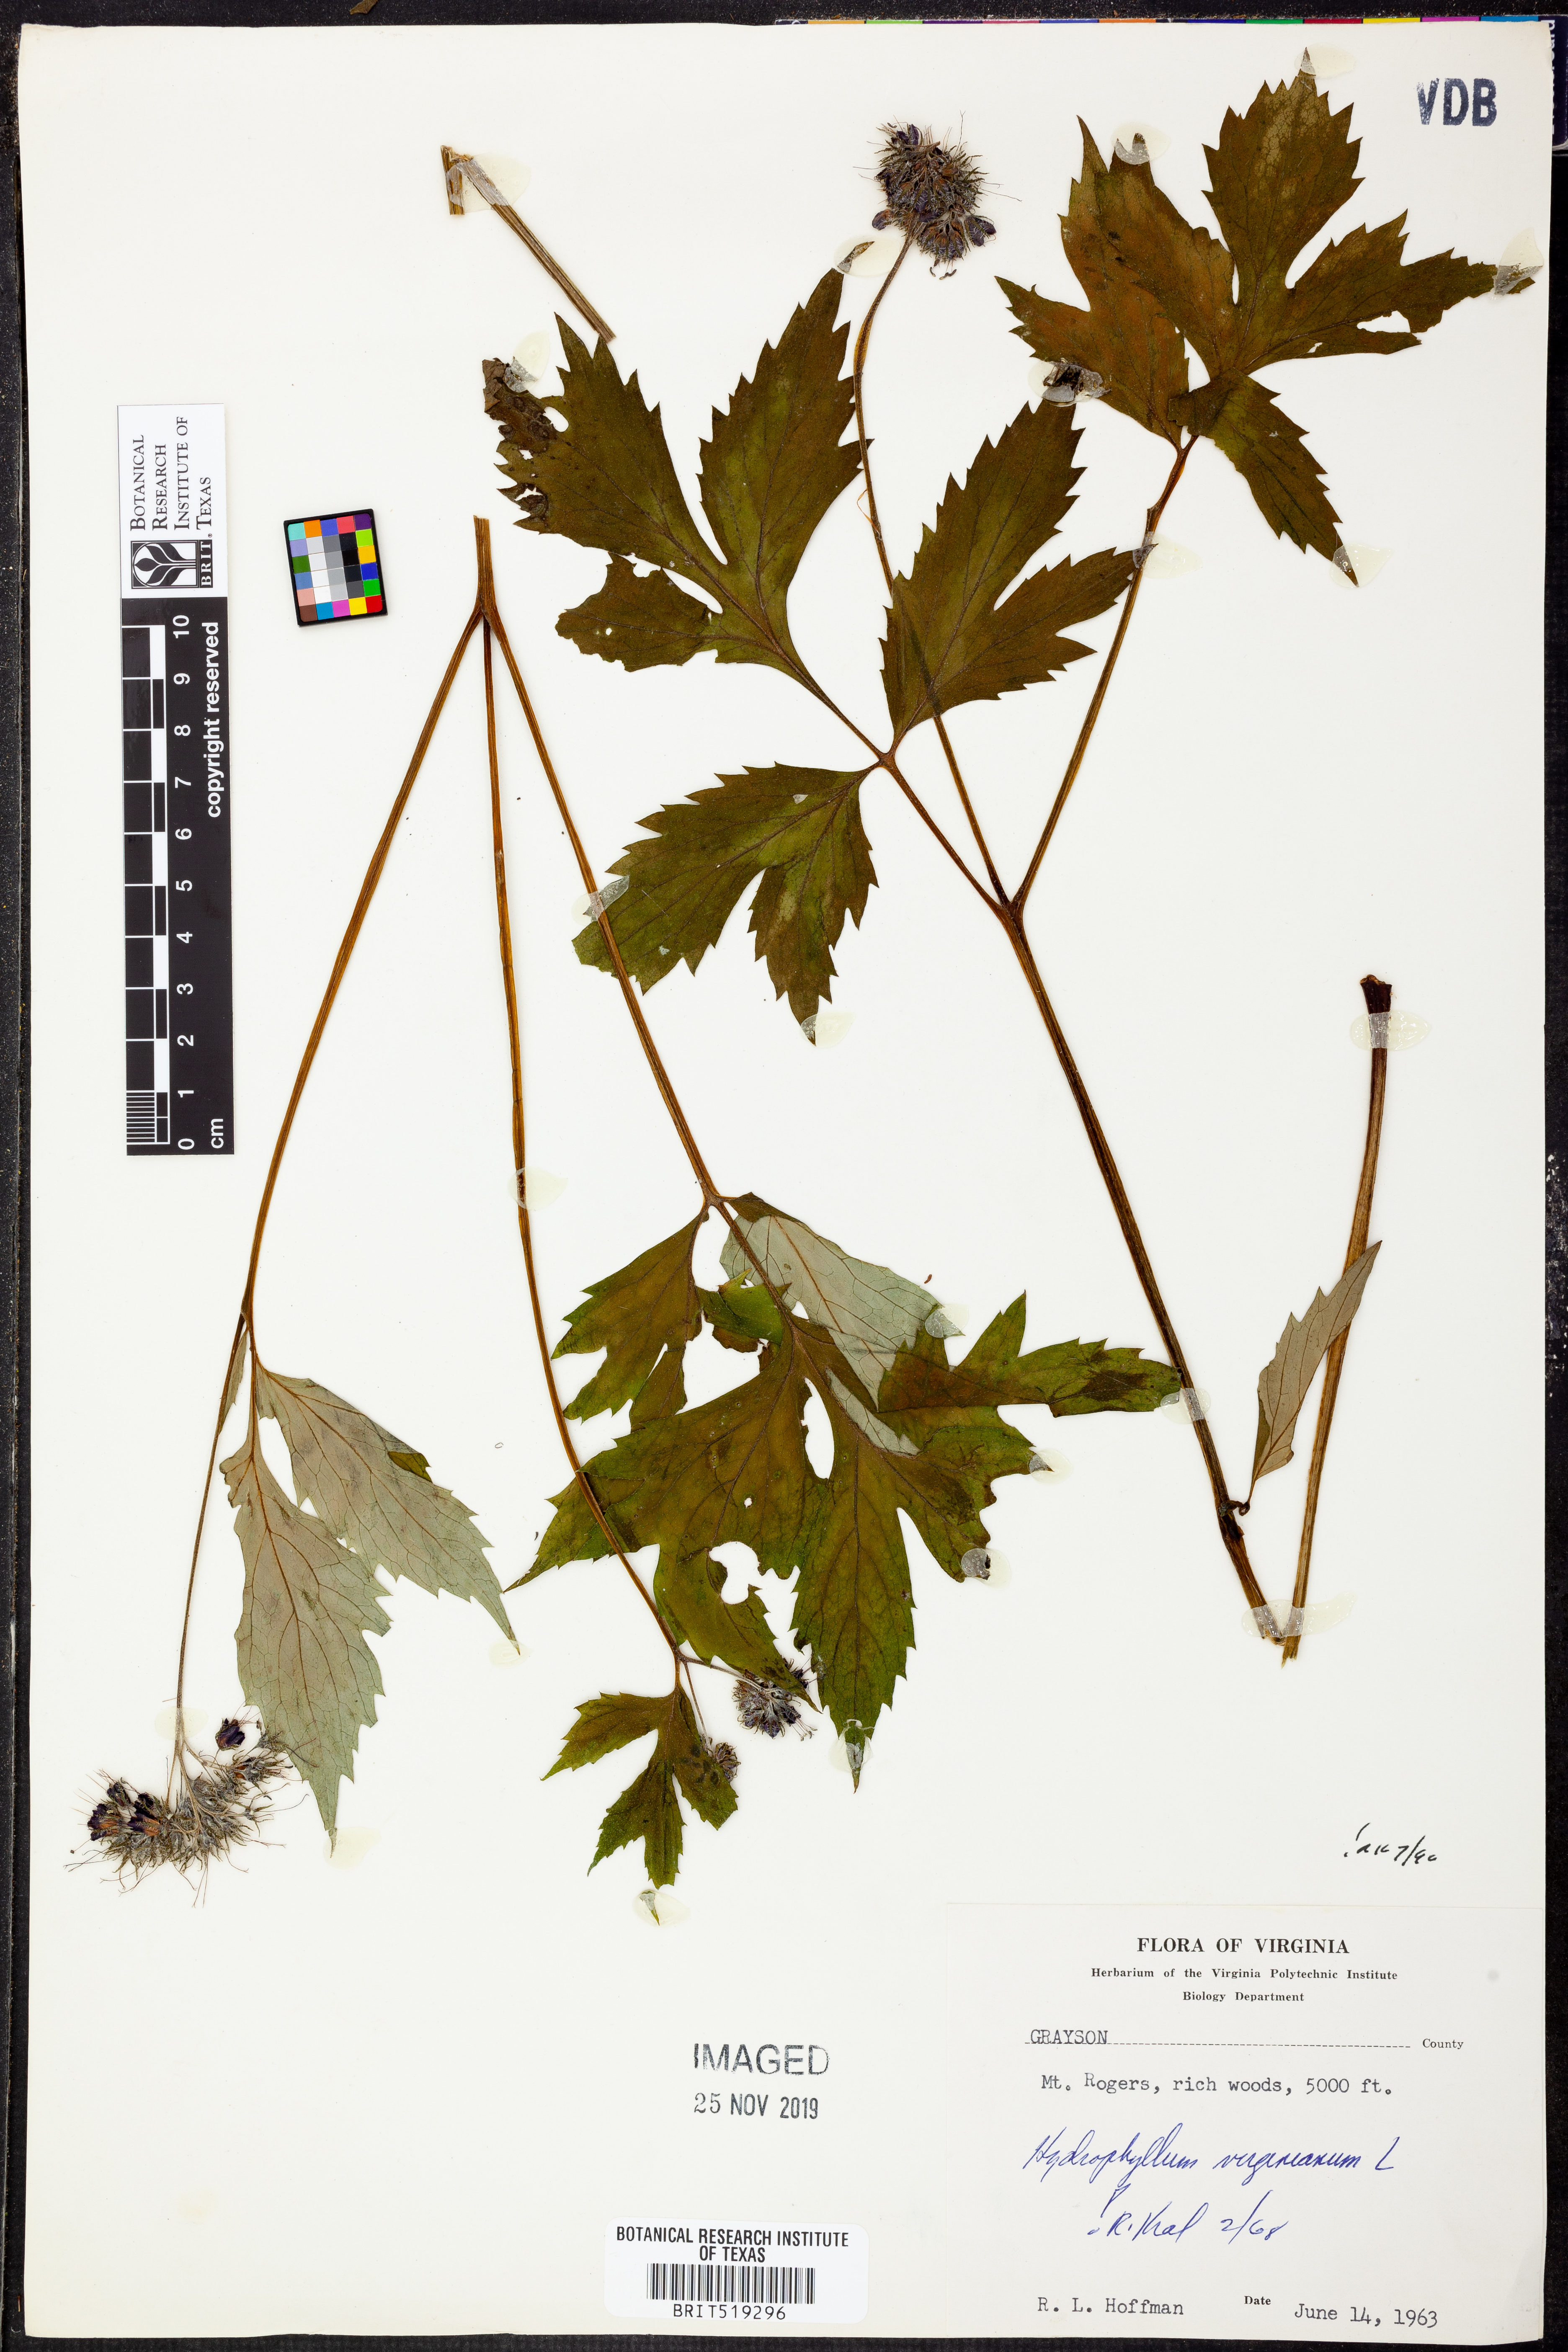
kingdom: Plantae
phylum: Tracheophyta
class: Magnoliopsida
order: Boraginales
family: Hydrophyllaceae
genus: Hydrophyllum
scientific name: Hydrophyllum virginianum
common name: Virginia waterleaf
